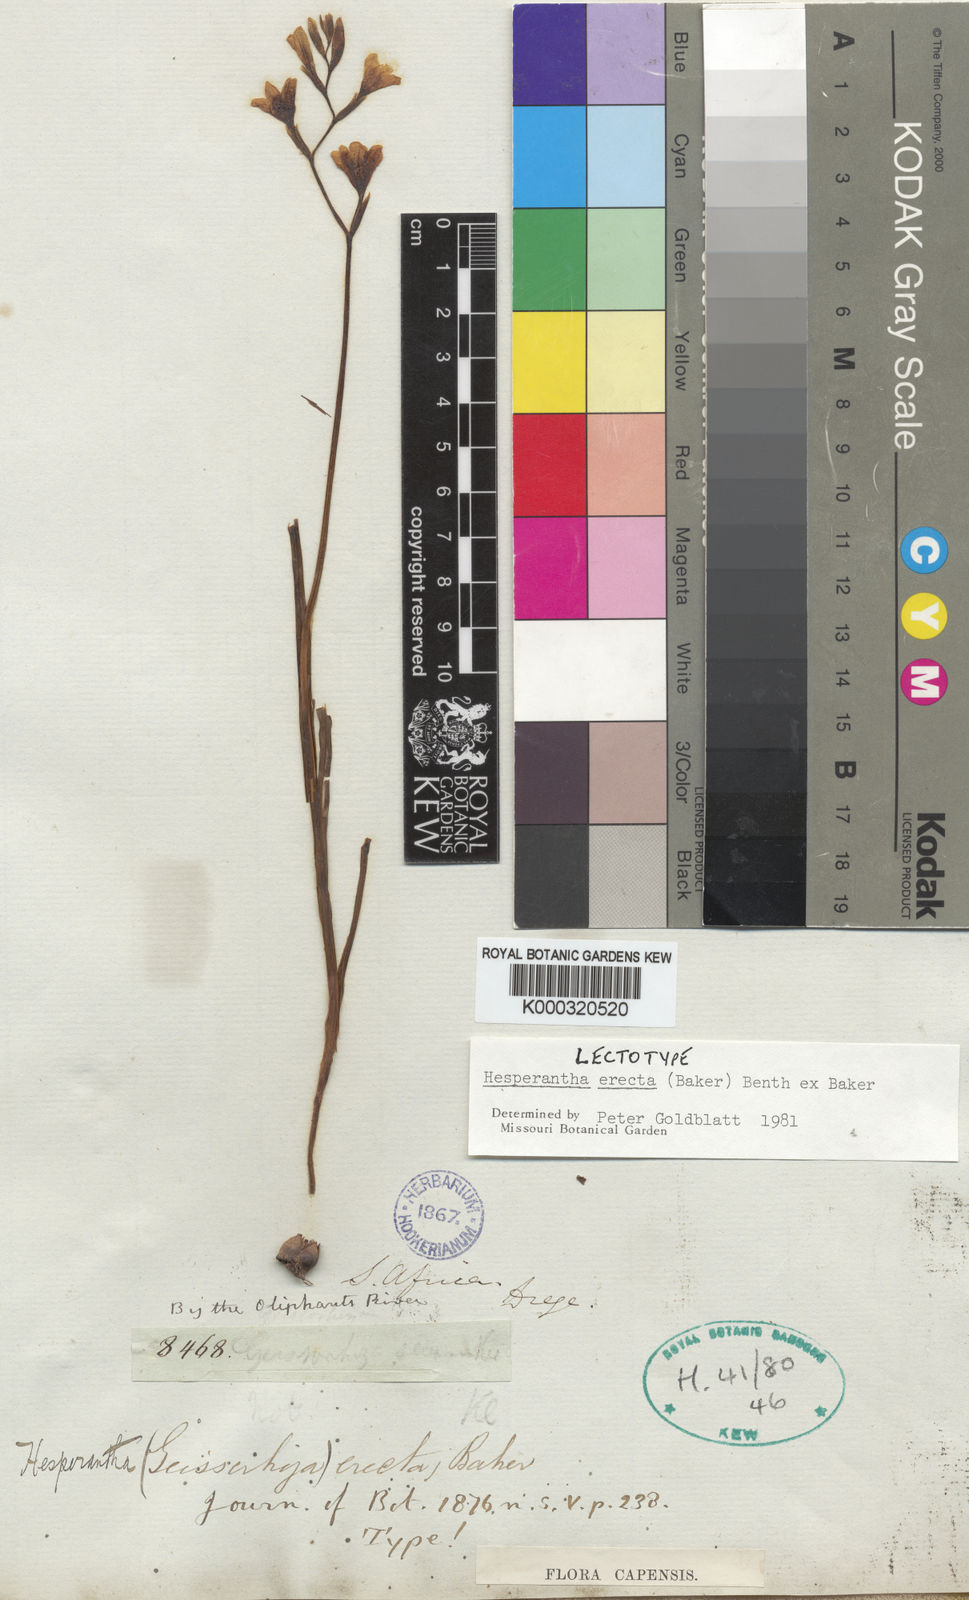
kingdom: Plantae
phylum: Tracheophyta
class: Liliopsida
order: Asparagales
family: Iridaceae
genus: Hesperantha
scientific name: Hesperantha
